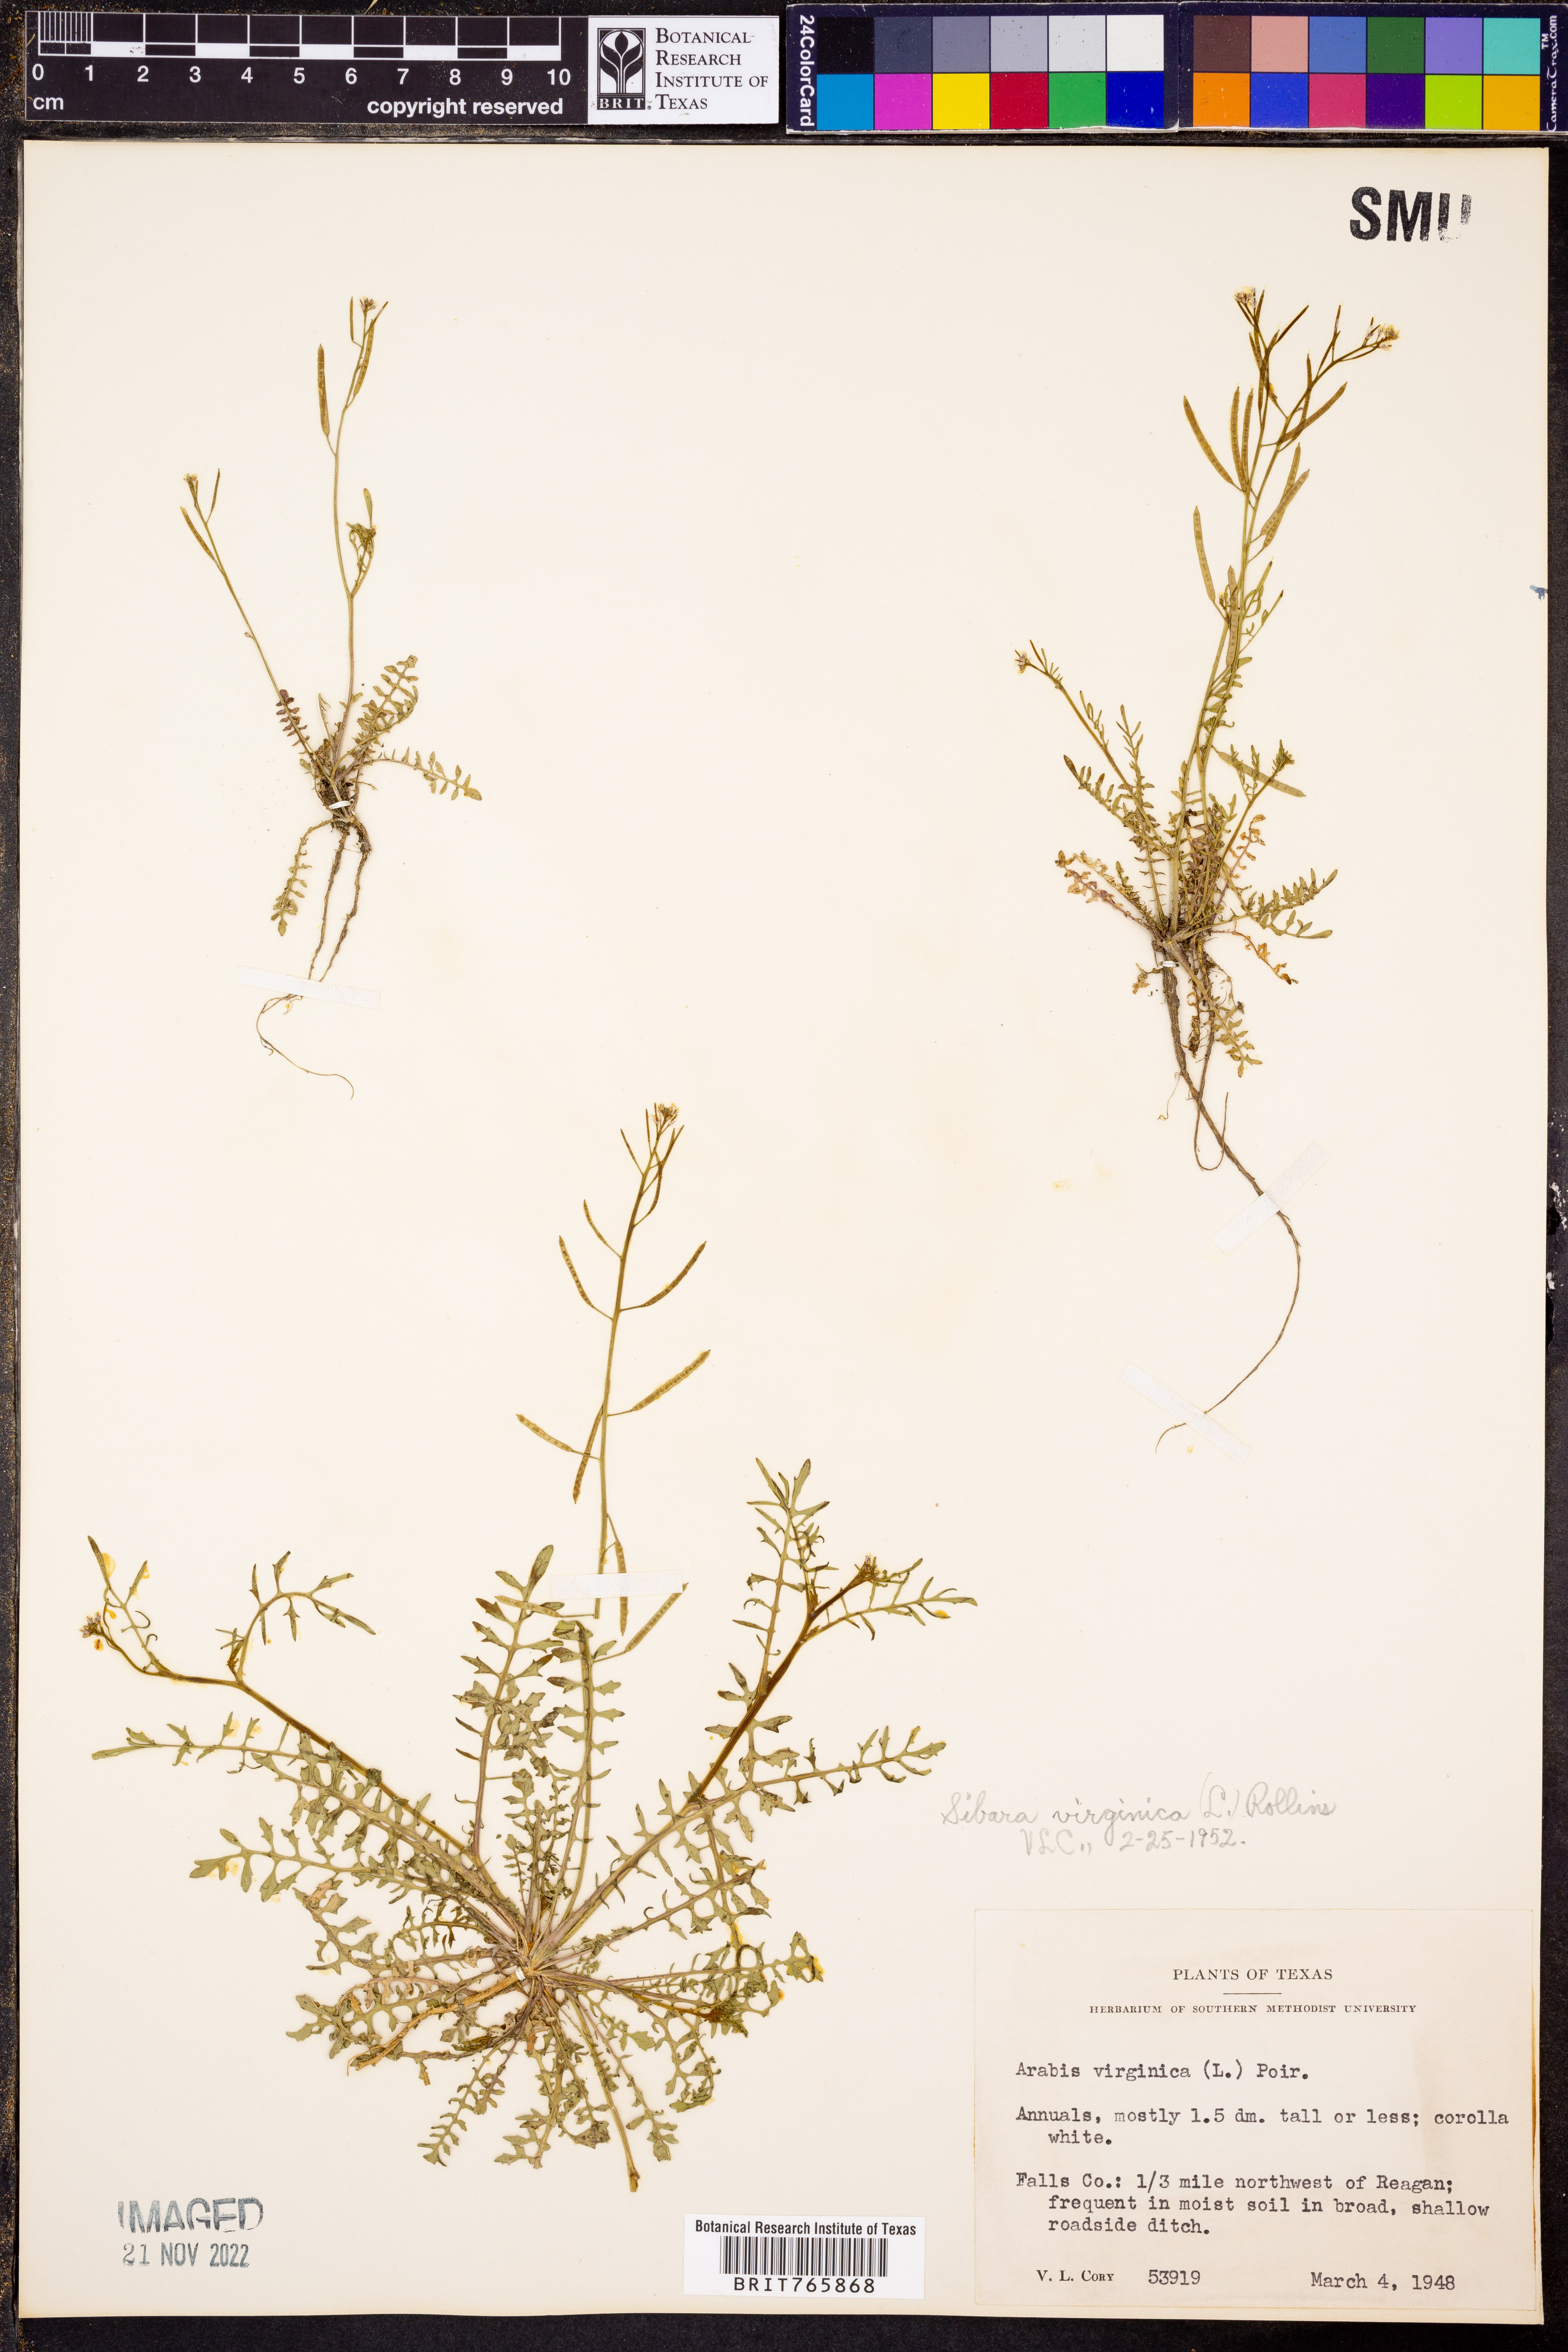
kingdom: Plantae
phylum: Tracheophyta
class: Magnoliopsida
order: Brassicales
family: Brassicaceae
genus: Planodes
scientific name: Planodes virginicum
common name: Virginia cress
